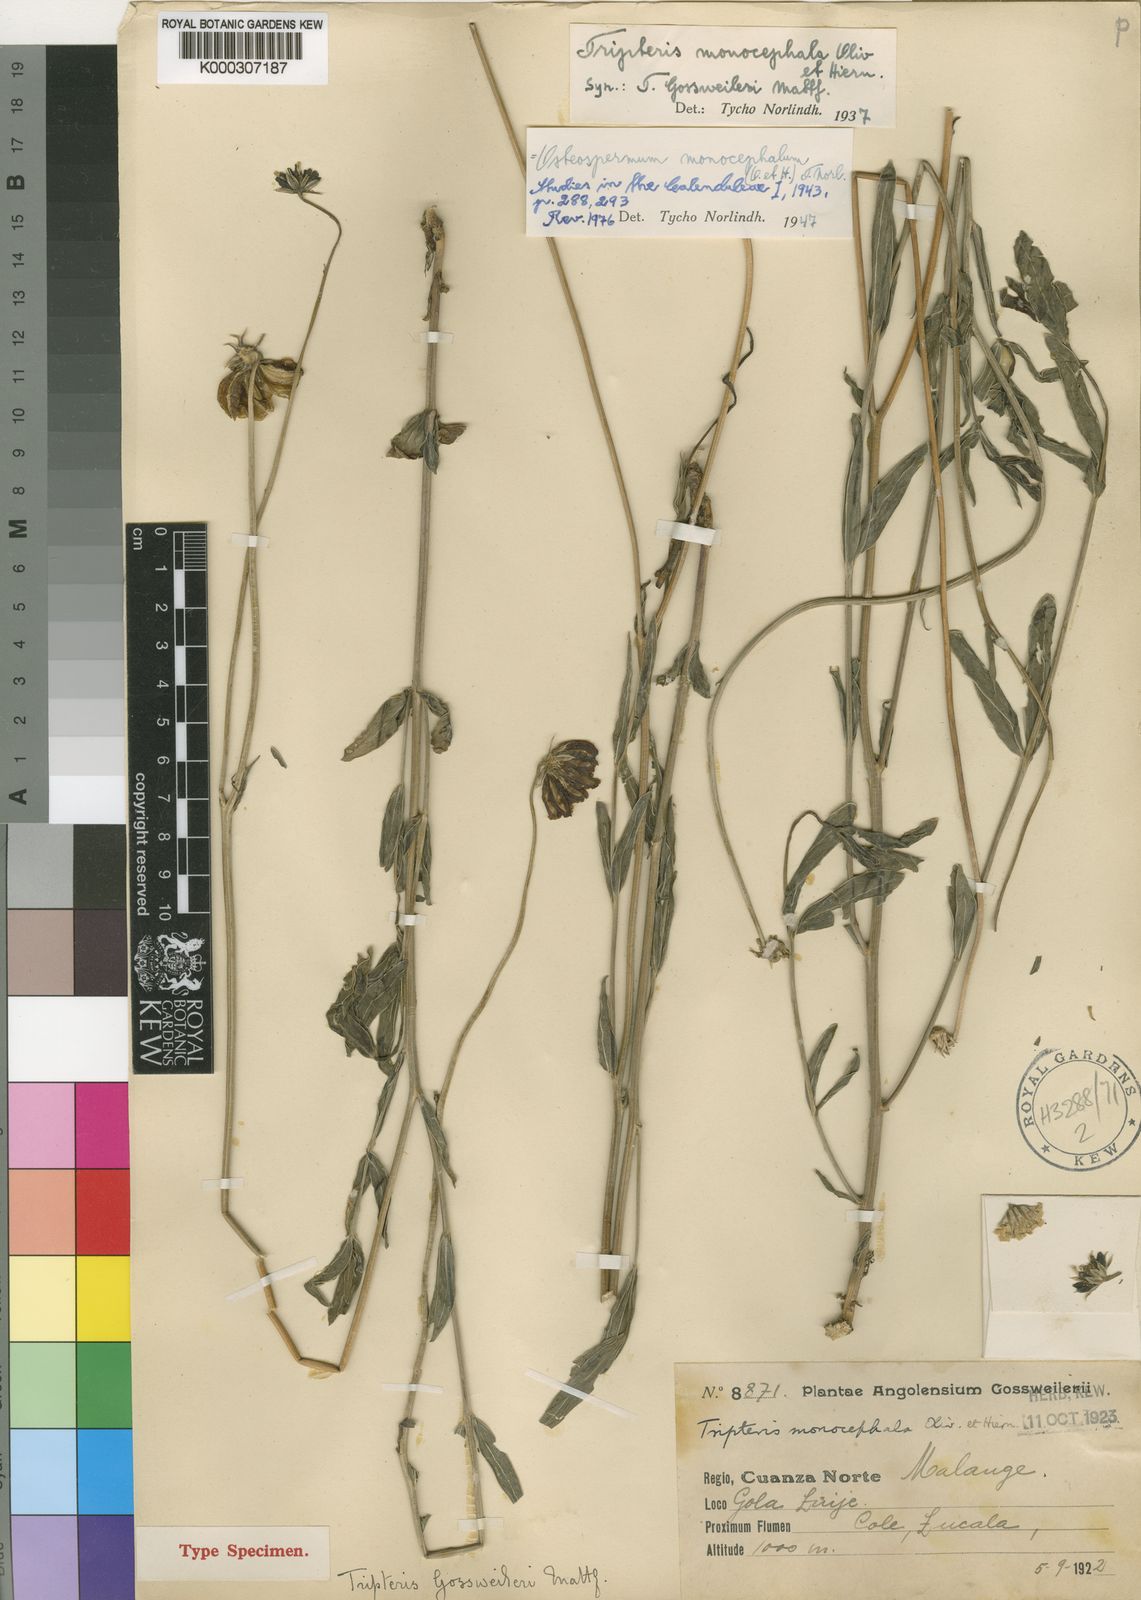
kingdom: Plantae
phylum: Tracheophyta
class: Magnoliopsida
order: Asterales
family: Asteraceae
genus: Osteospermum
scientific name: Osteospermum monocephalum
